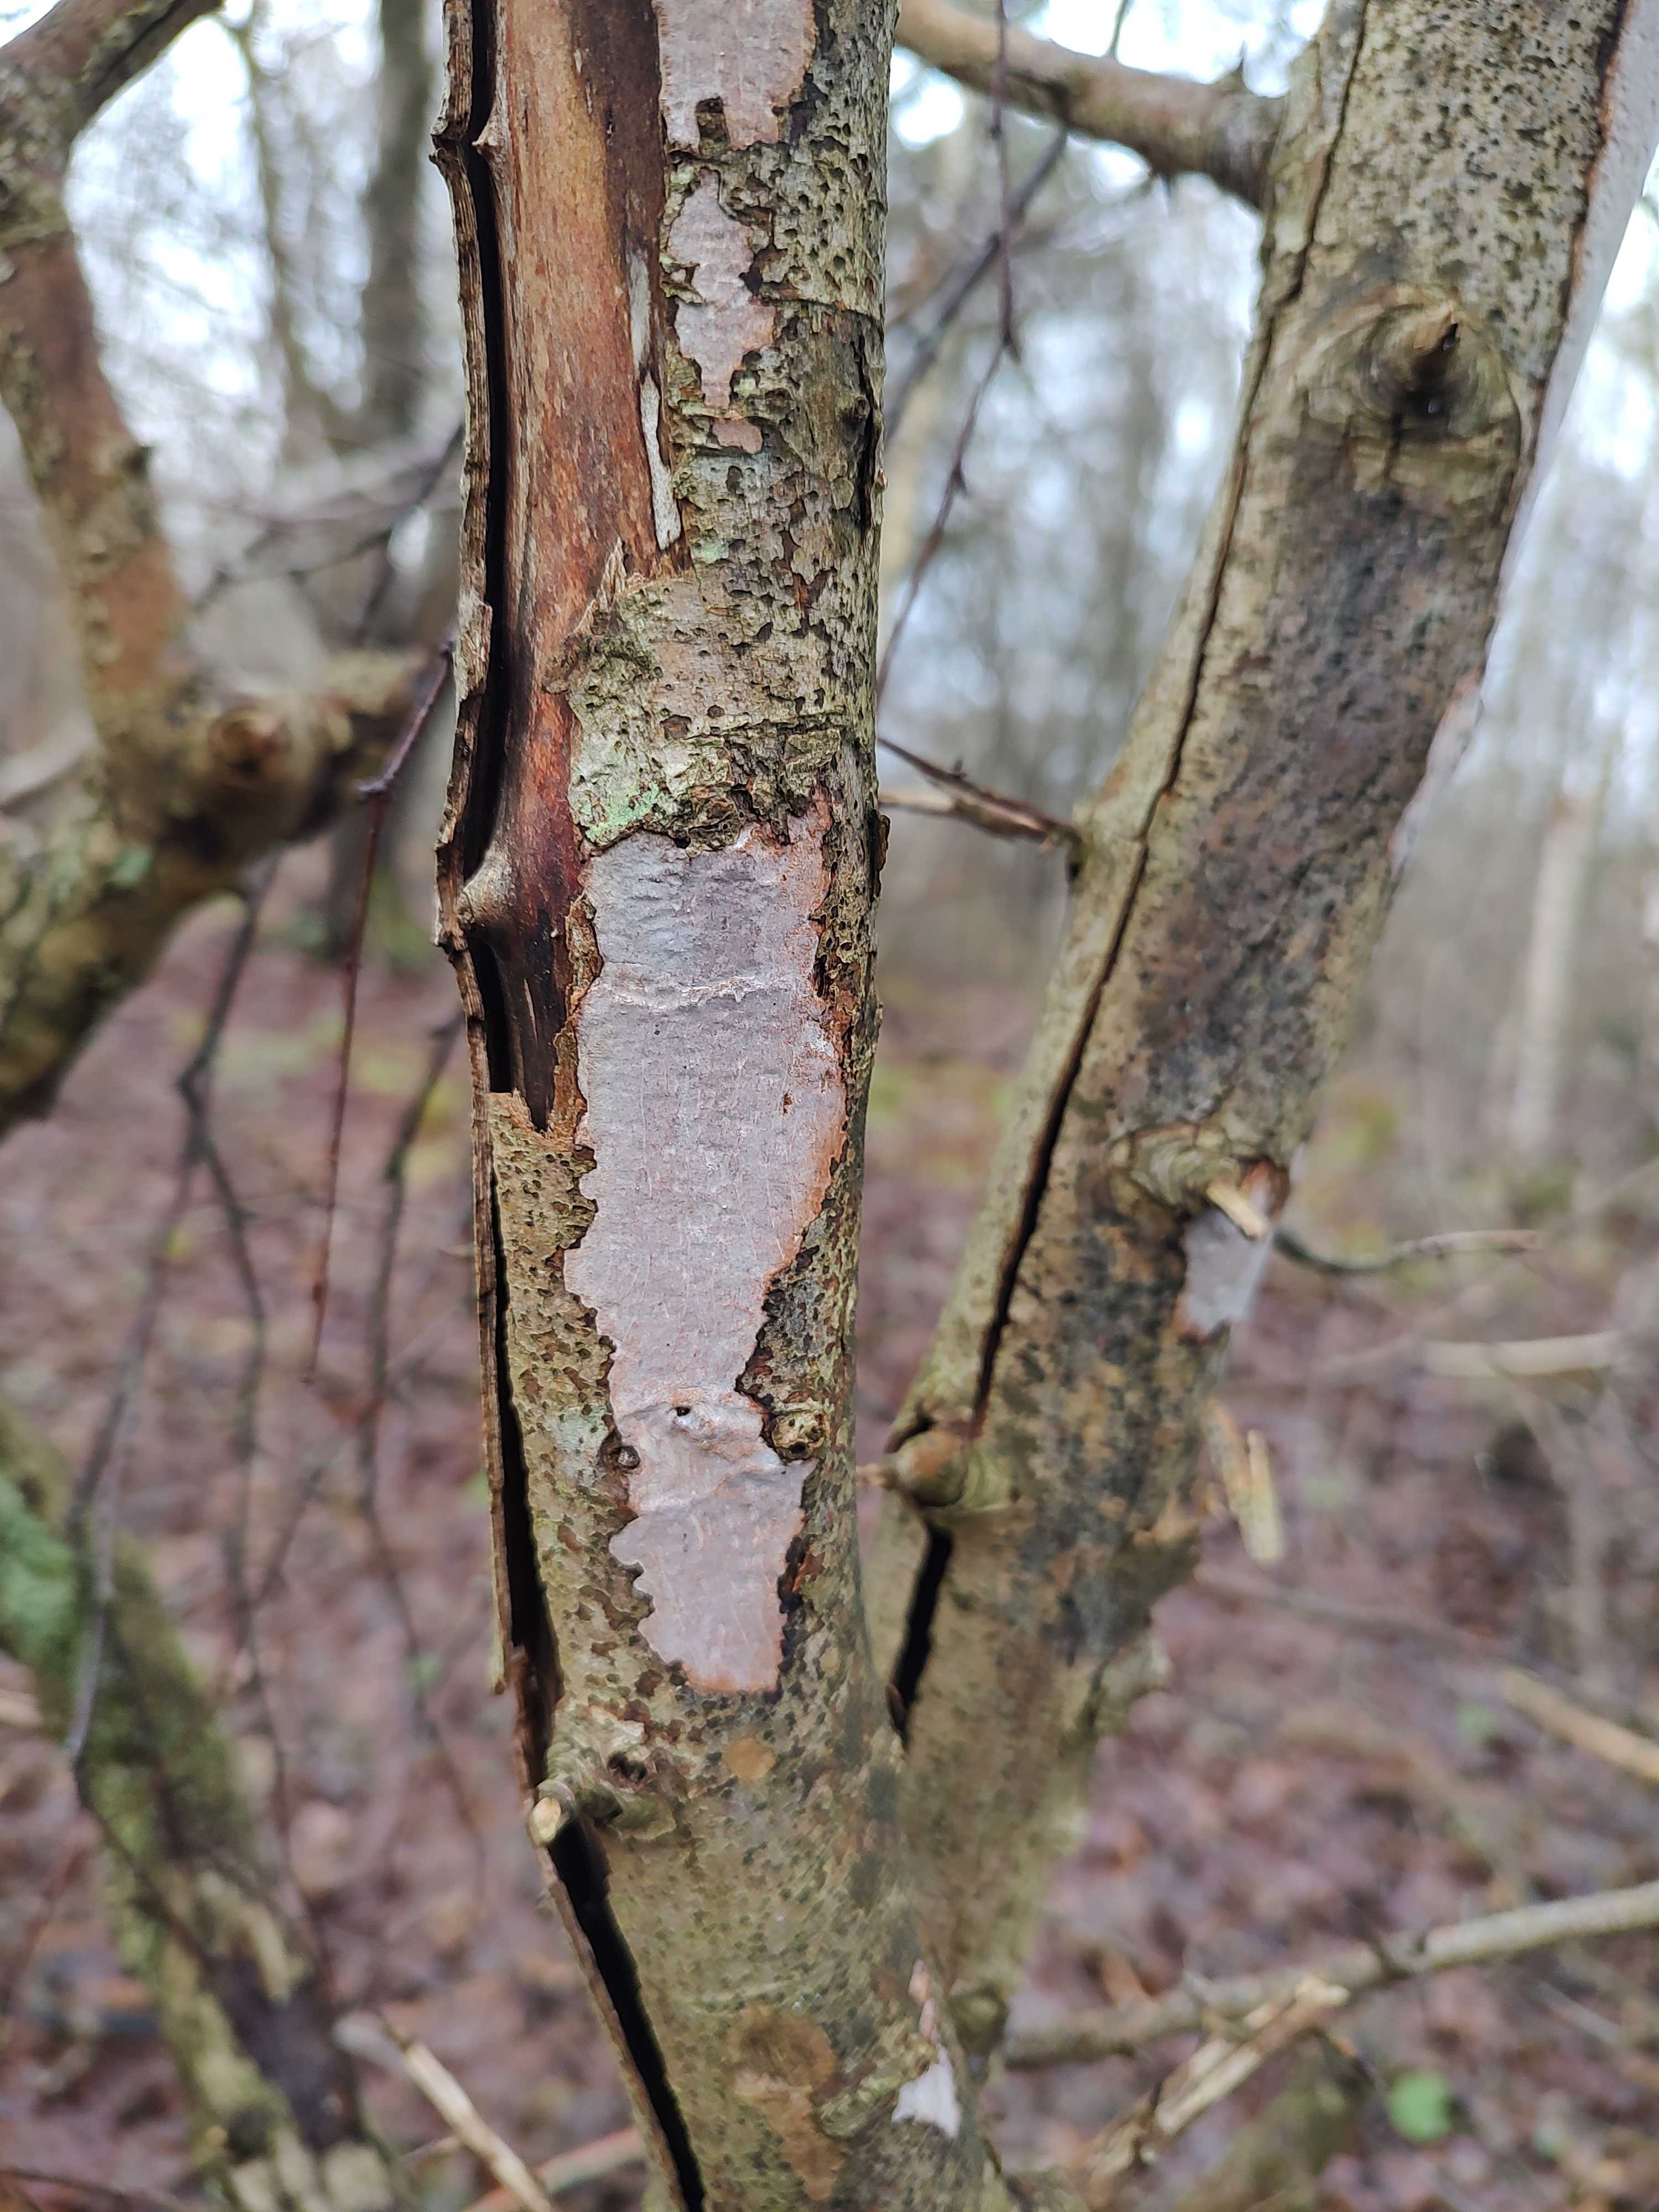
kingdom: Fungi
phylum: Basidiomycota
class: Agaricomycetes
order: Corticiales
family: Vuilleminiaceae
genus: Vuilleminia
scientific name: Vuilleminia cystidiata
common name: tjørne-barksprænger
